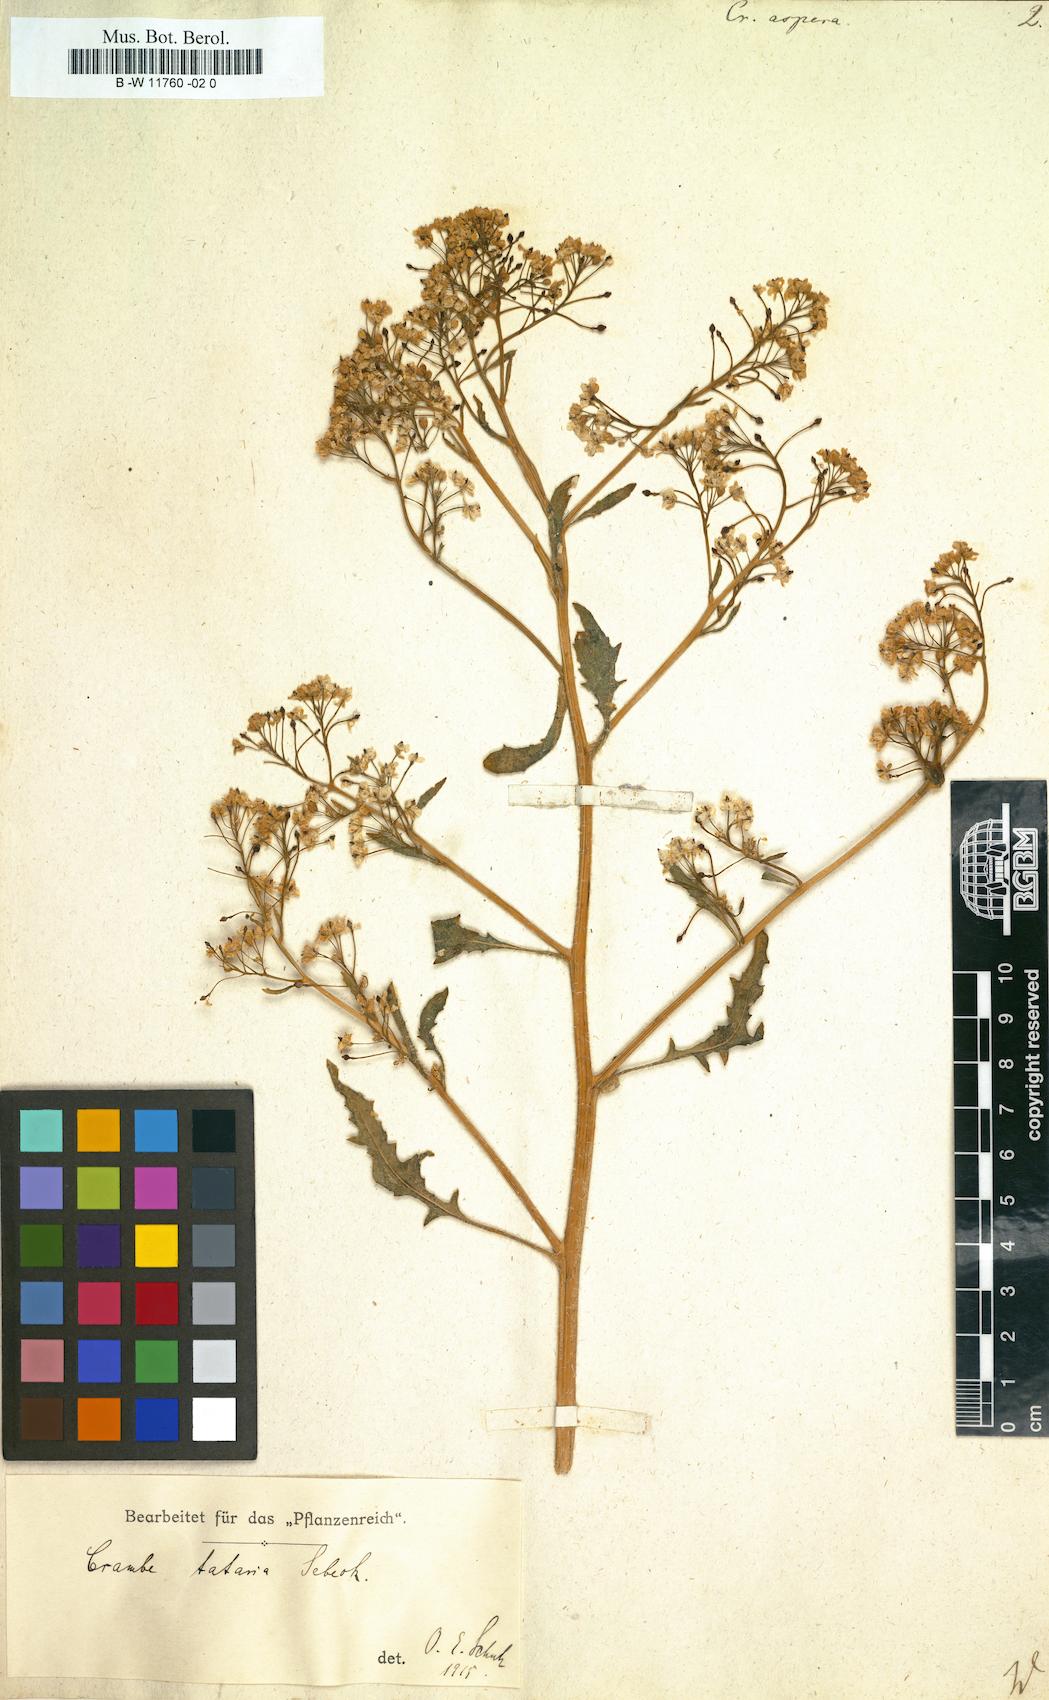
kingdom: Plantae
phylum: Tracheophyta
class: Magnoliopsida
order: Brassicales
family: Brassicaceae
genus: Crambe
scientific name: Crambe aspera
